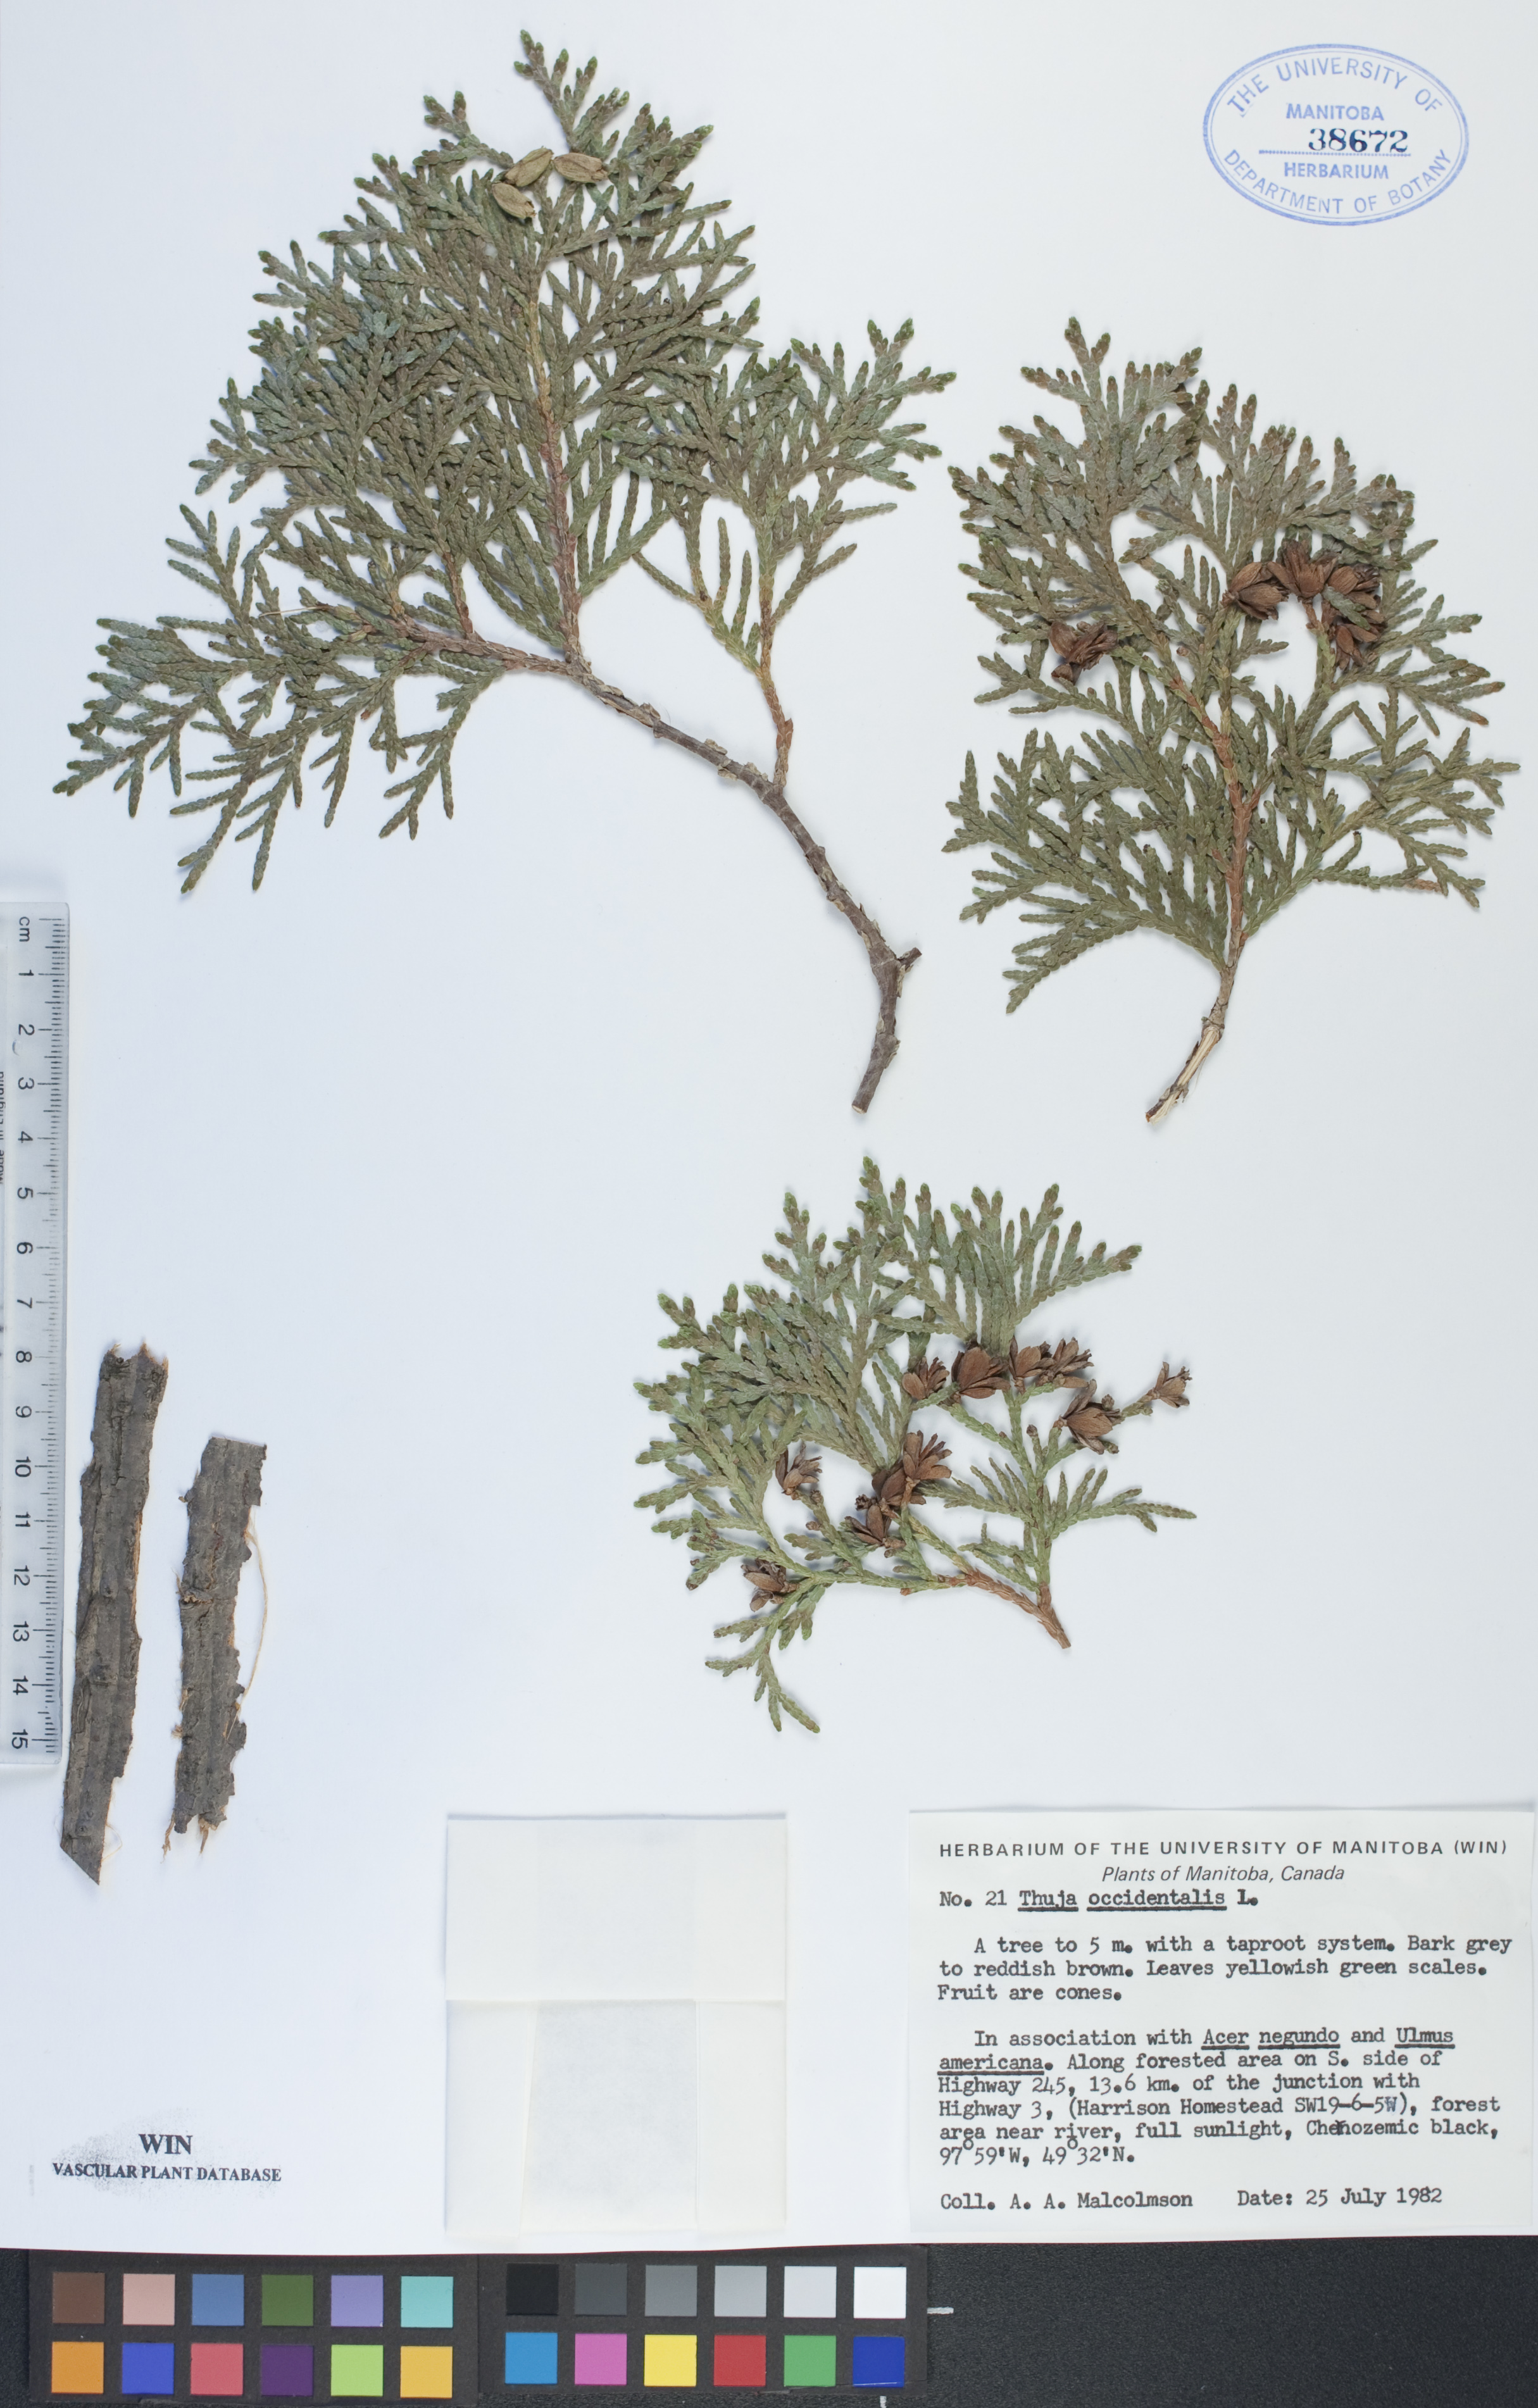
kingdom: Plantae
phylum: Tracheophyta
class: Pinopsida
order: Pinales
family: Cupressaceae
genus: Thuja
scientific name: Thuja occidentalis
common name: Northern white-cedar
